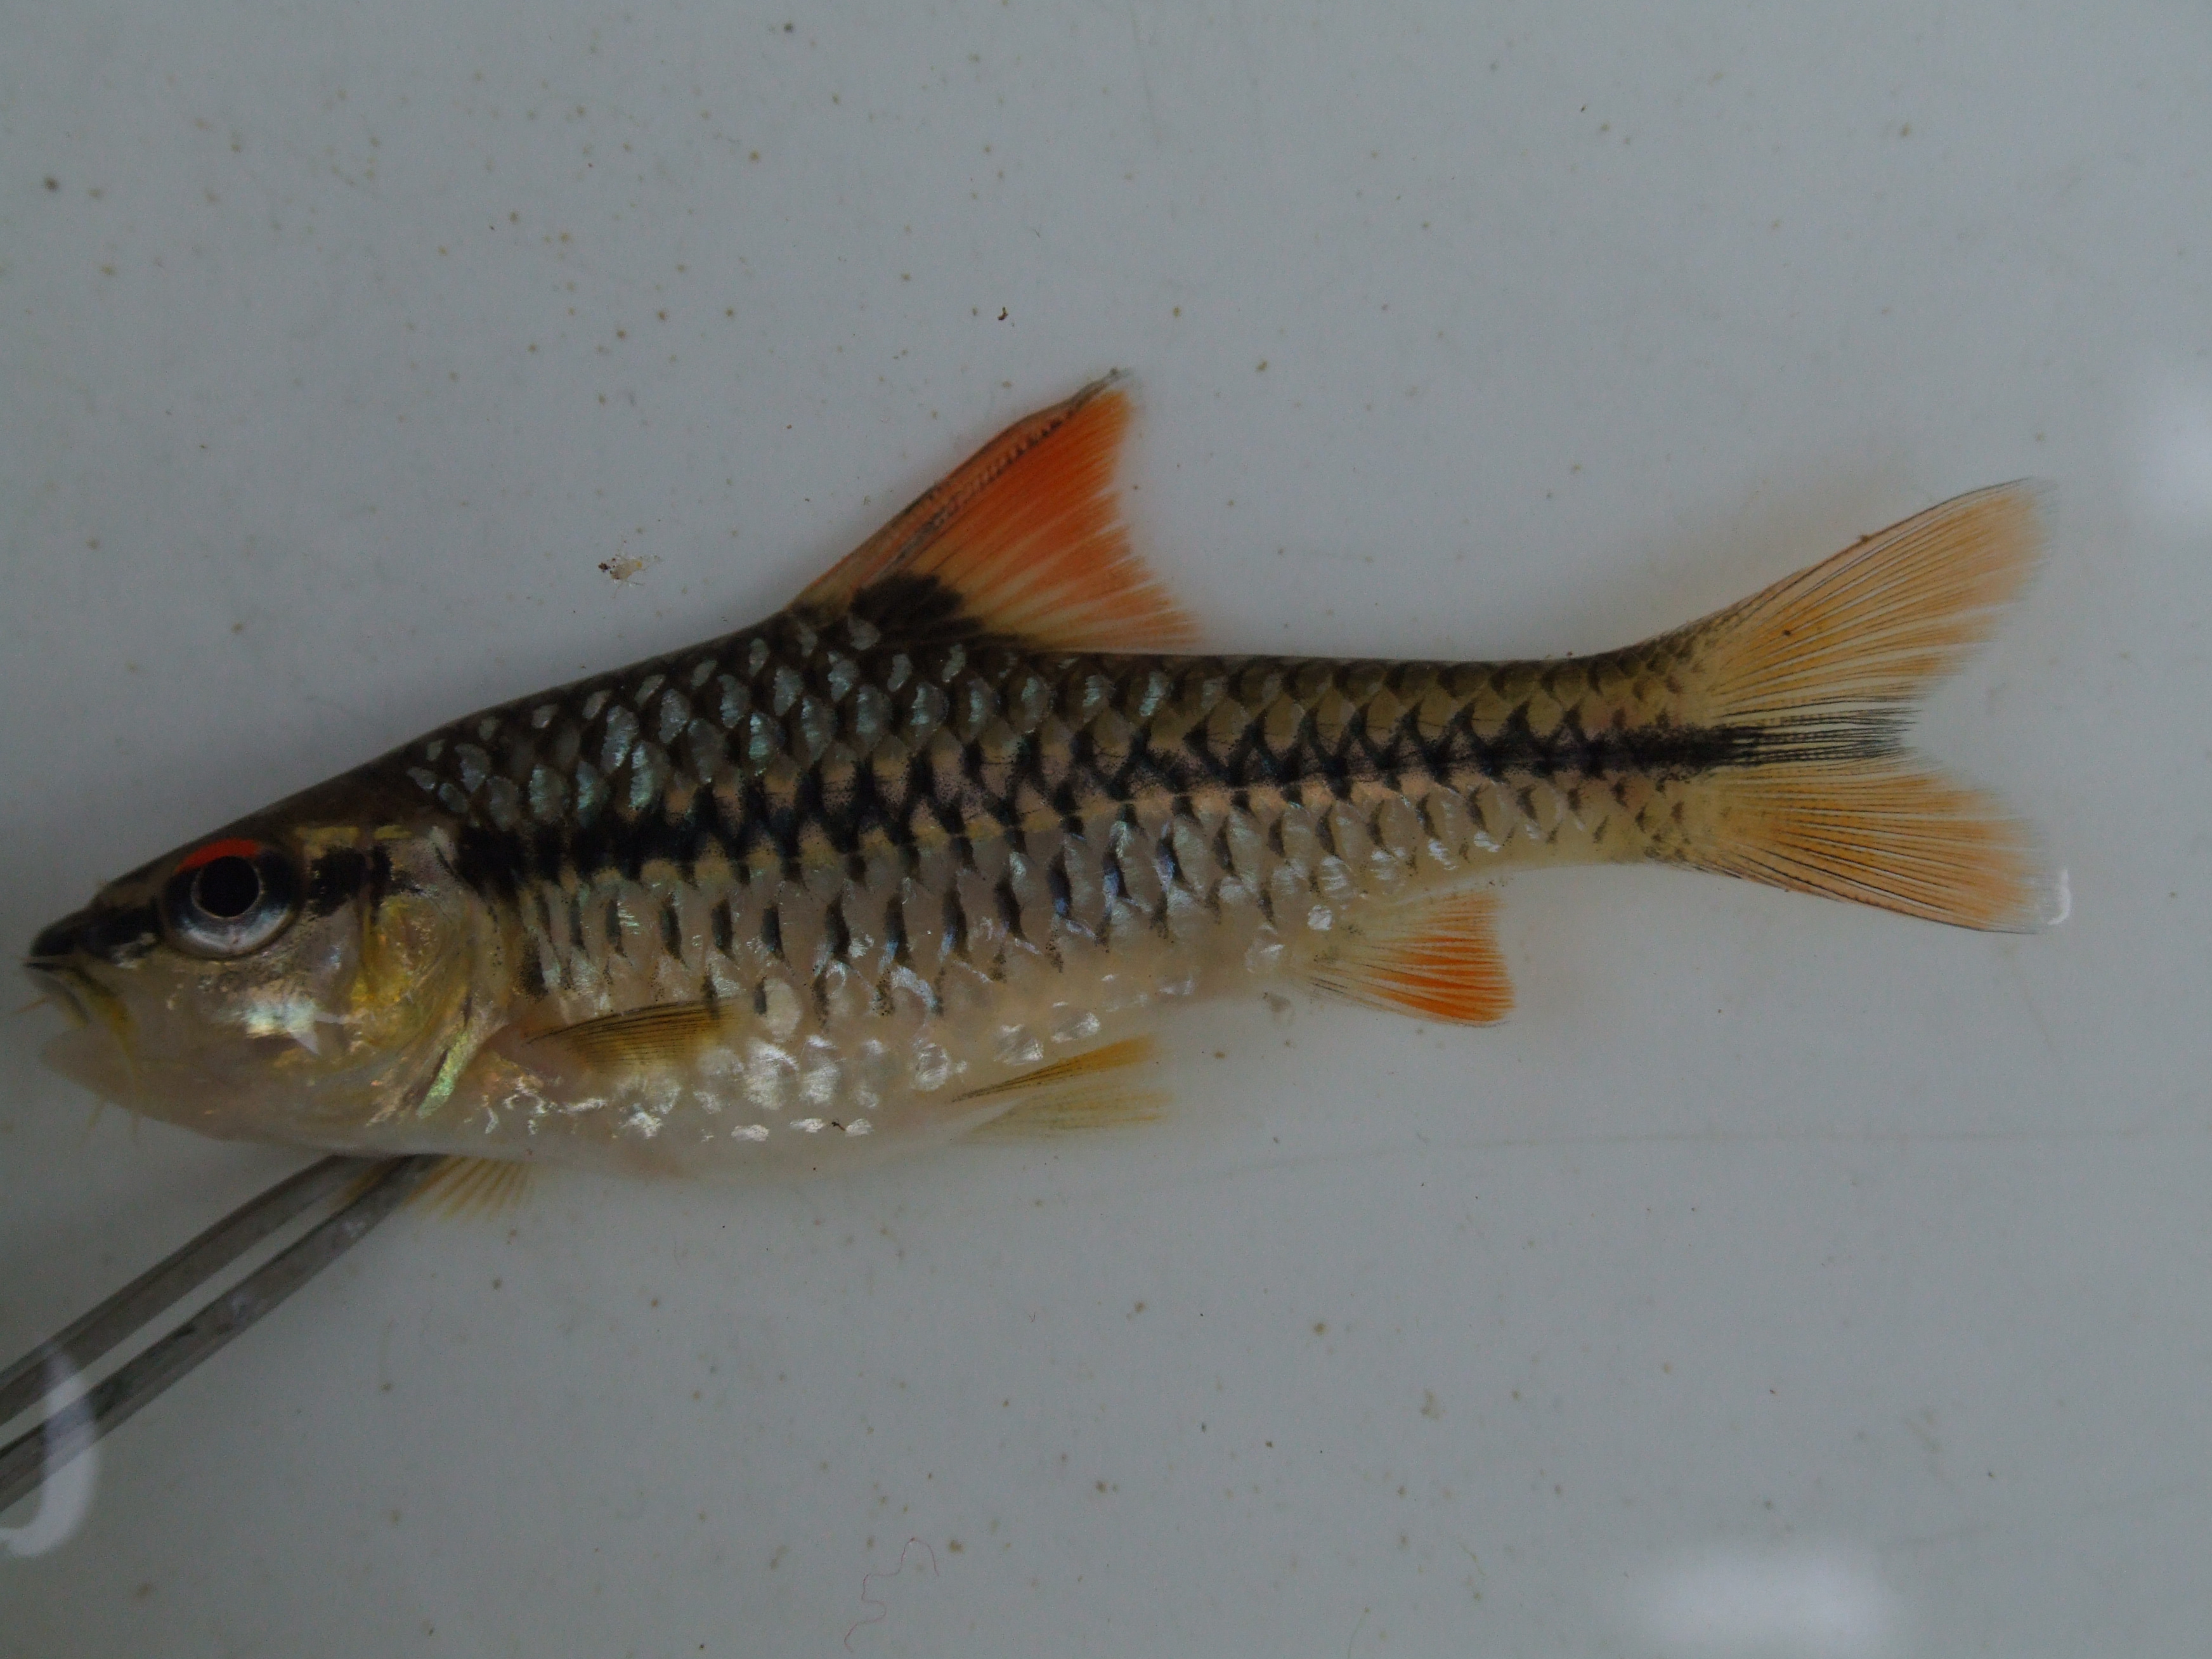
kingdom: Animalia
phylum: Chordata
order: Cypriniformes
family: Cyprinidae
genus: Enteromius
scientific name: Enteromius miolepis
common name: Zigzag barb
